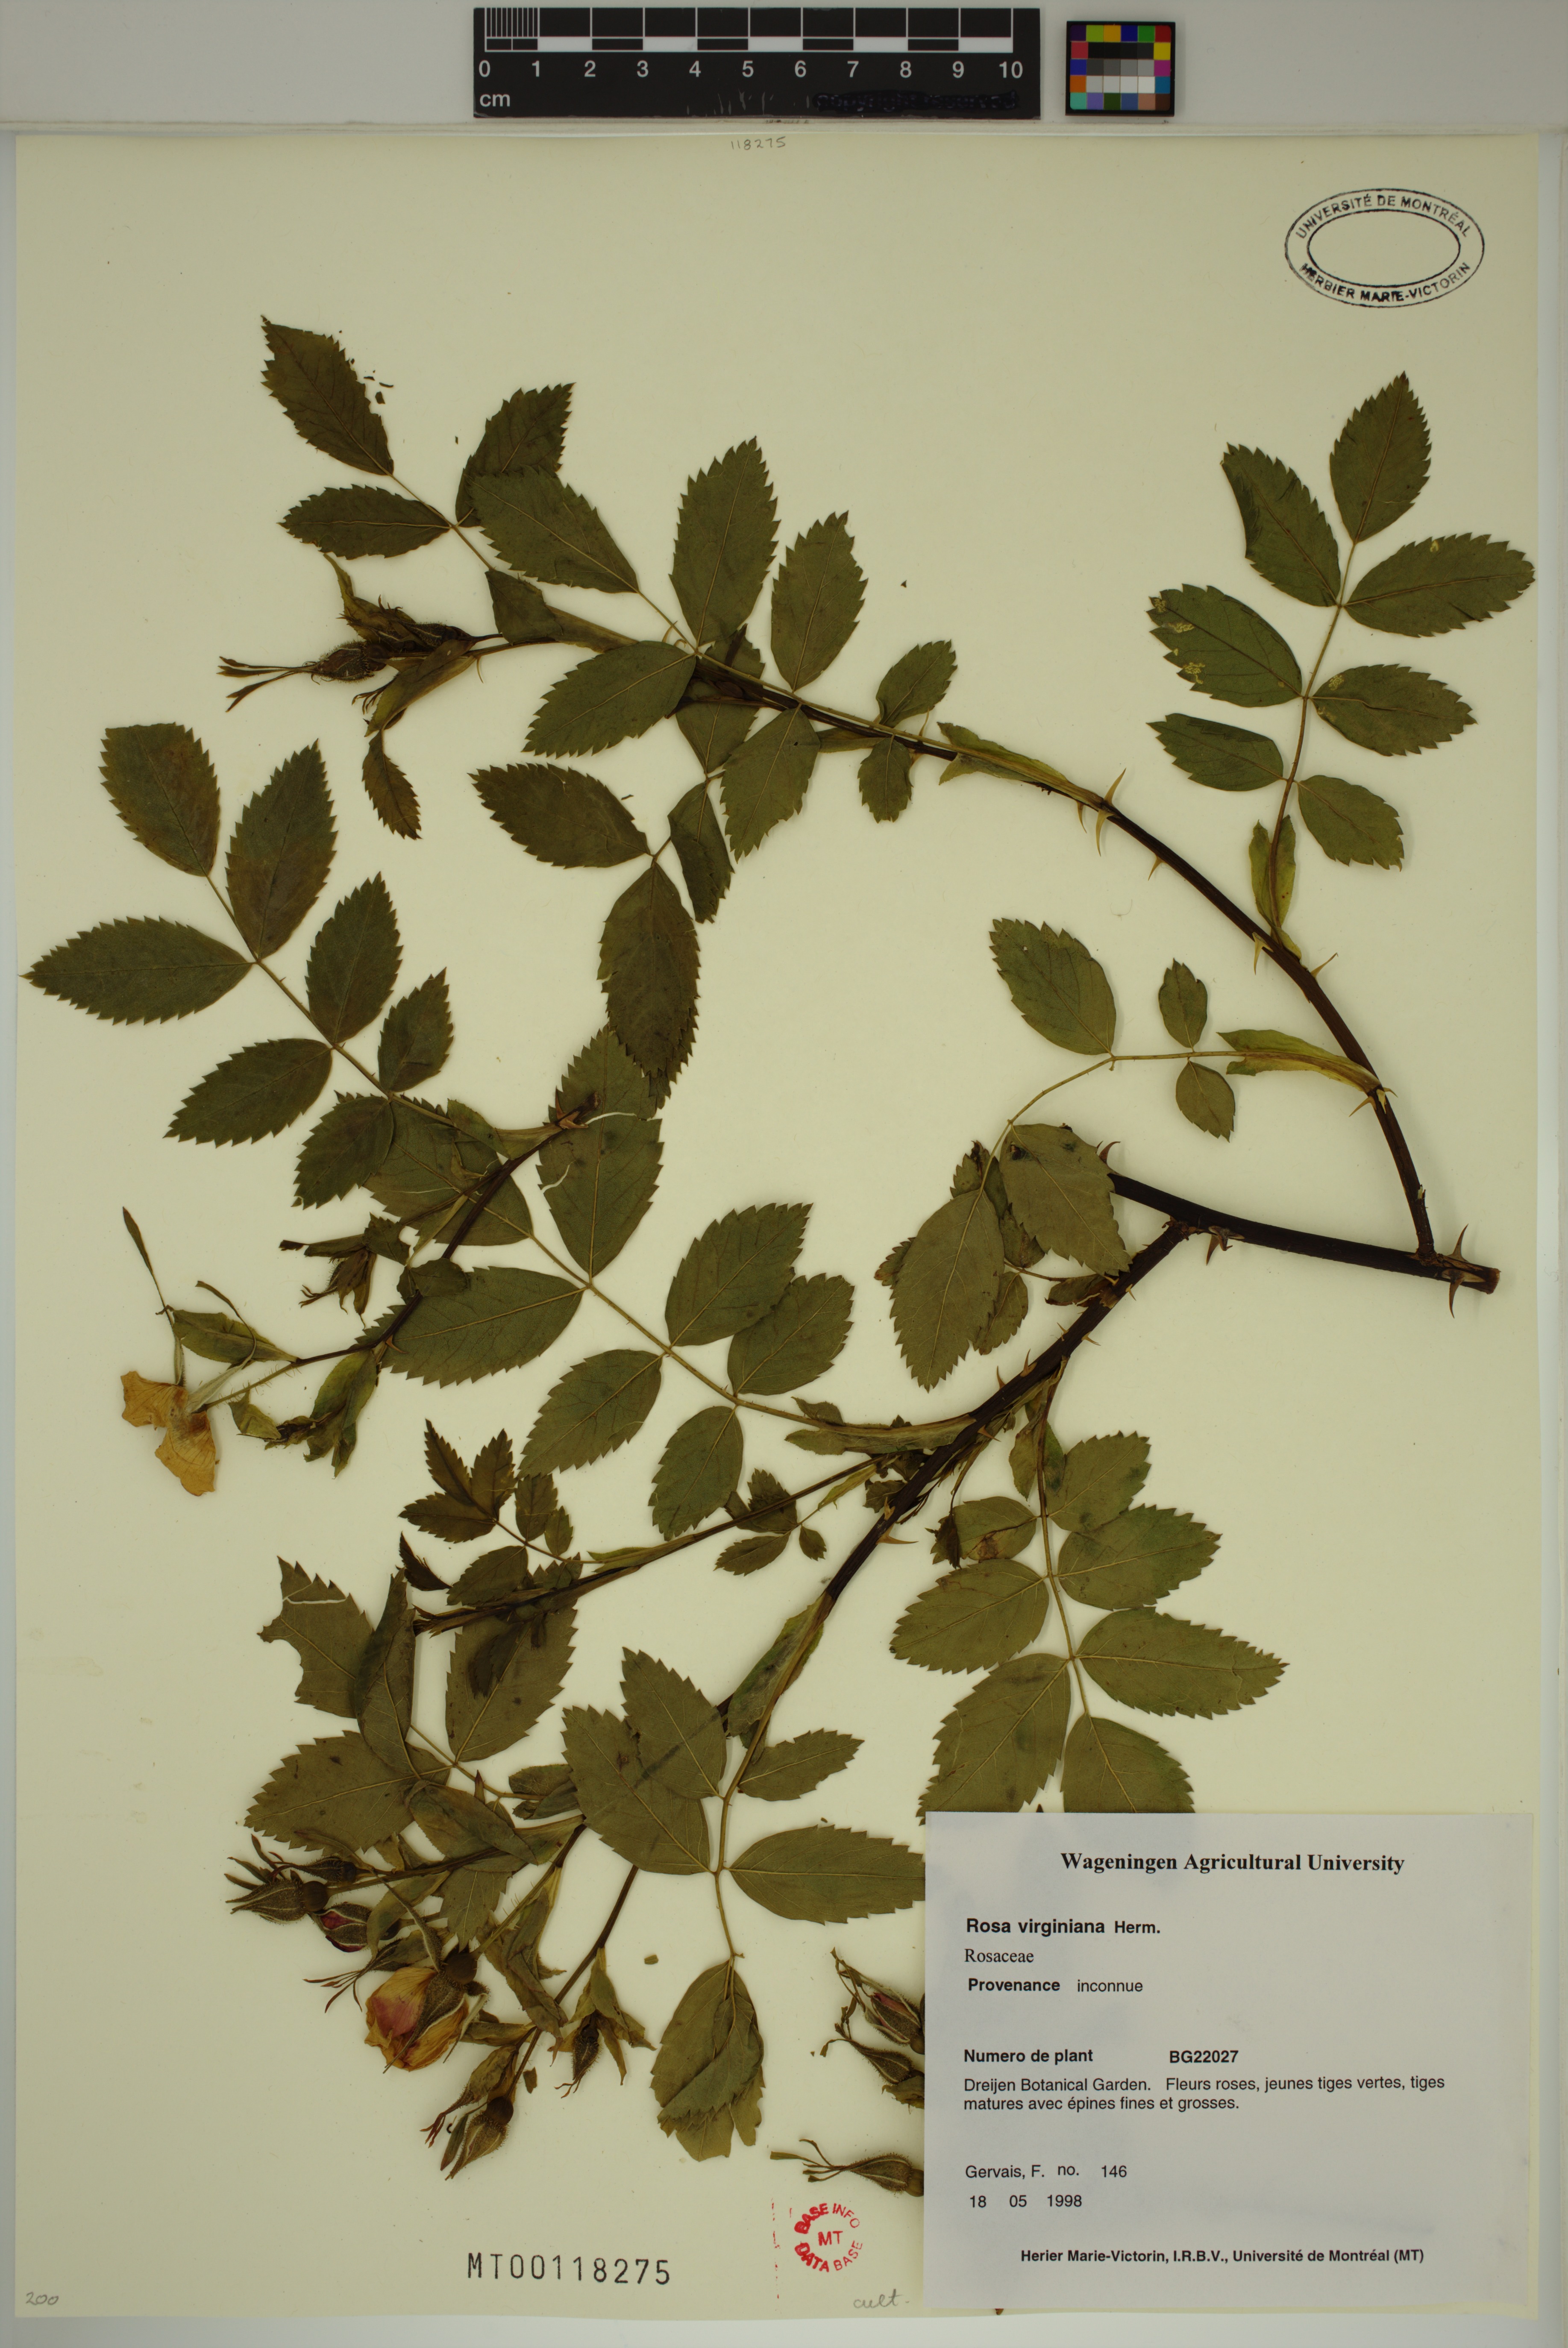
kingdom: Plantae
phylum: Tracheophyta
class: Magnoliopsida
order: Rosales
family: Rosaceae
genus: Rosa
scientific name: Rosa carolina
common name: Pasture rose
